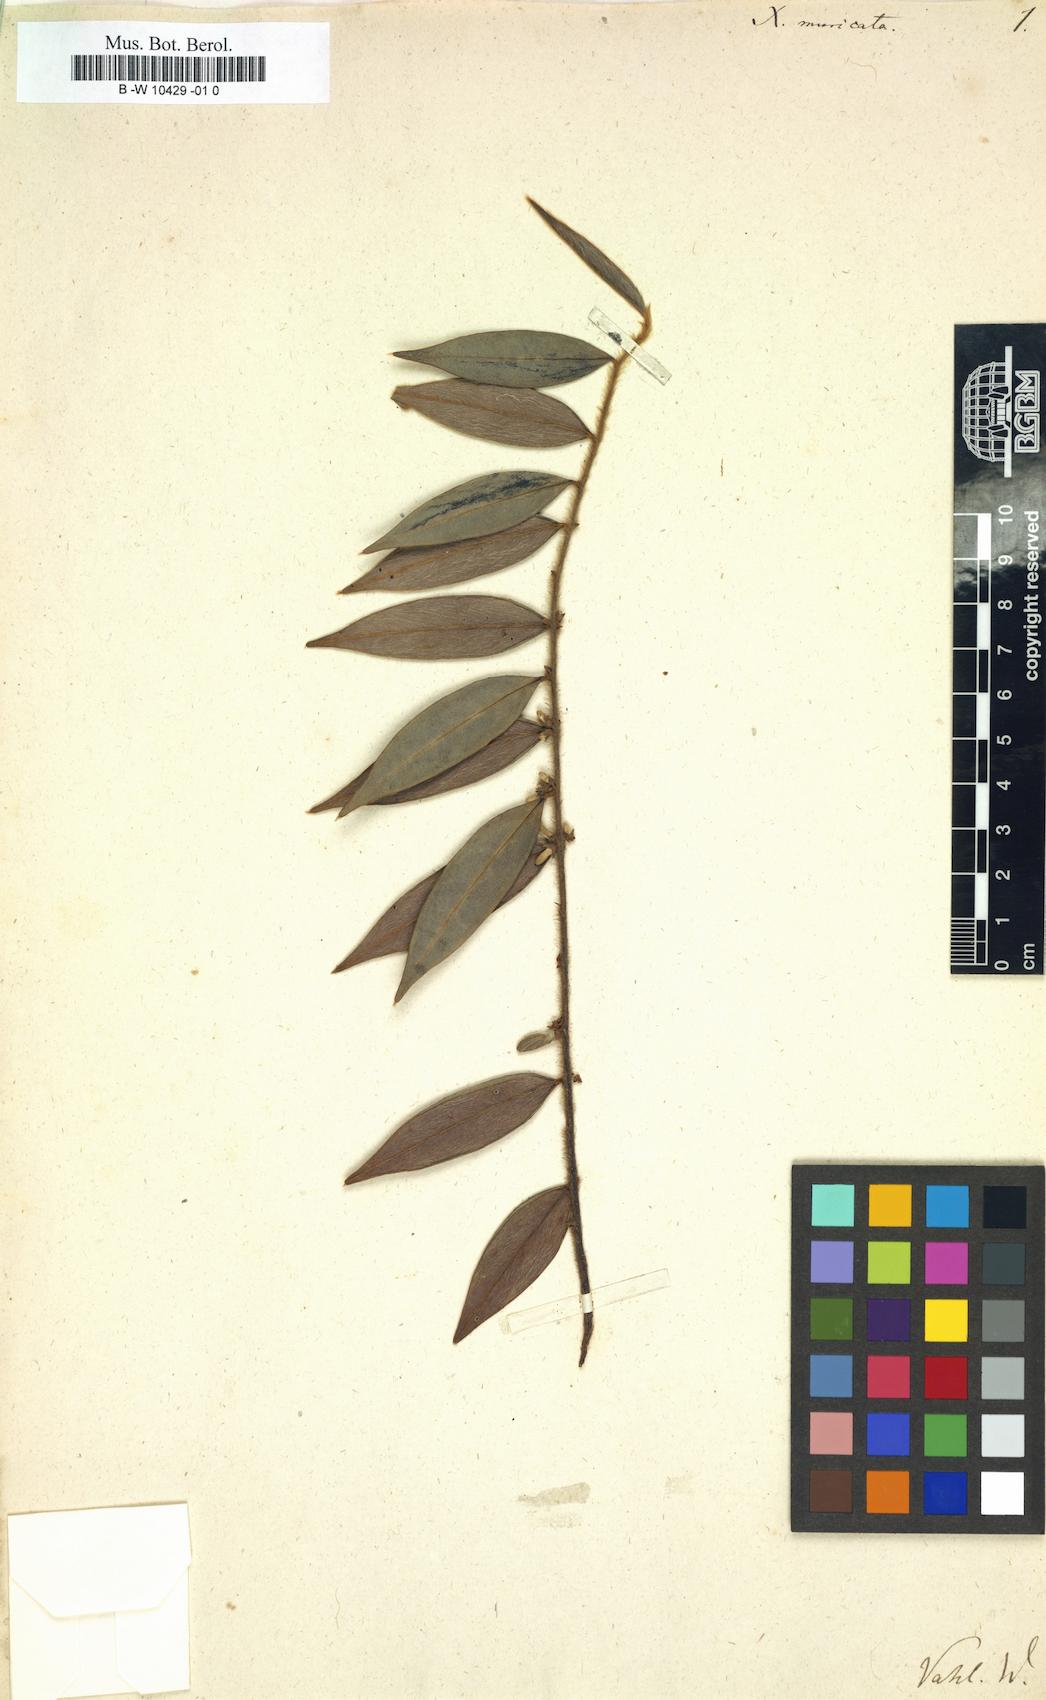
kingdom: Plantae
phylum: Tracheophyta
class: Magnoliopsida
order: Magnoliales
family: Annonaceae
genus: Xylopia
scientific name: Xylopia muricata
